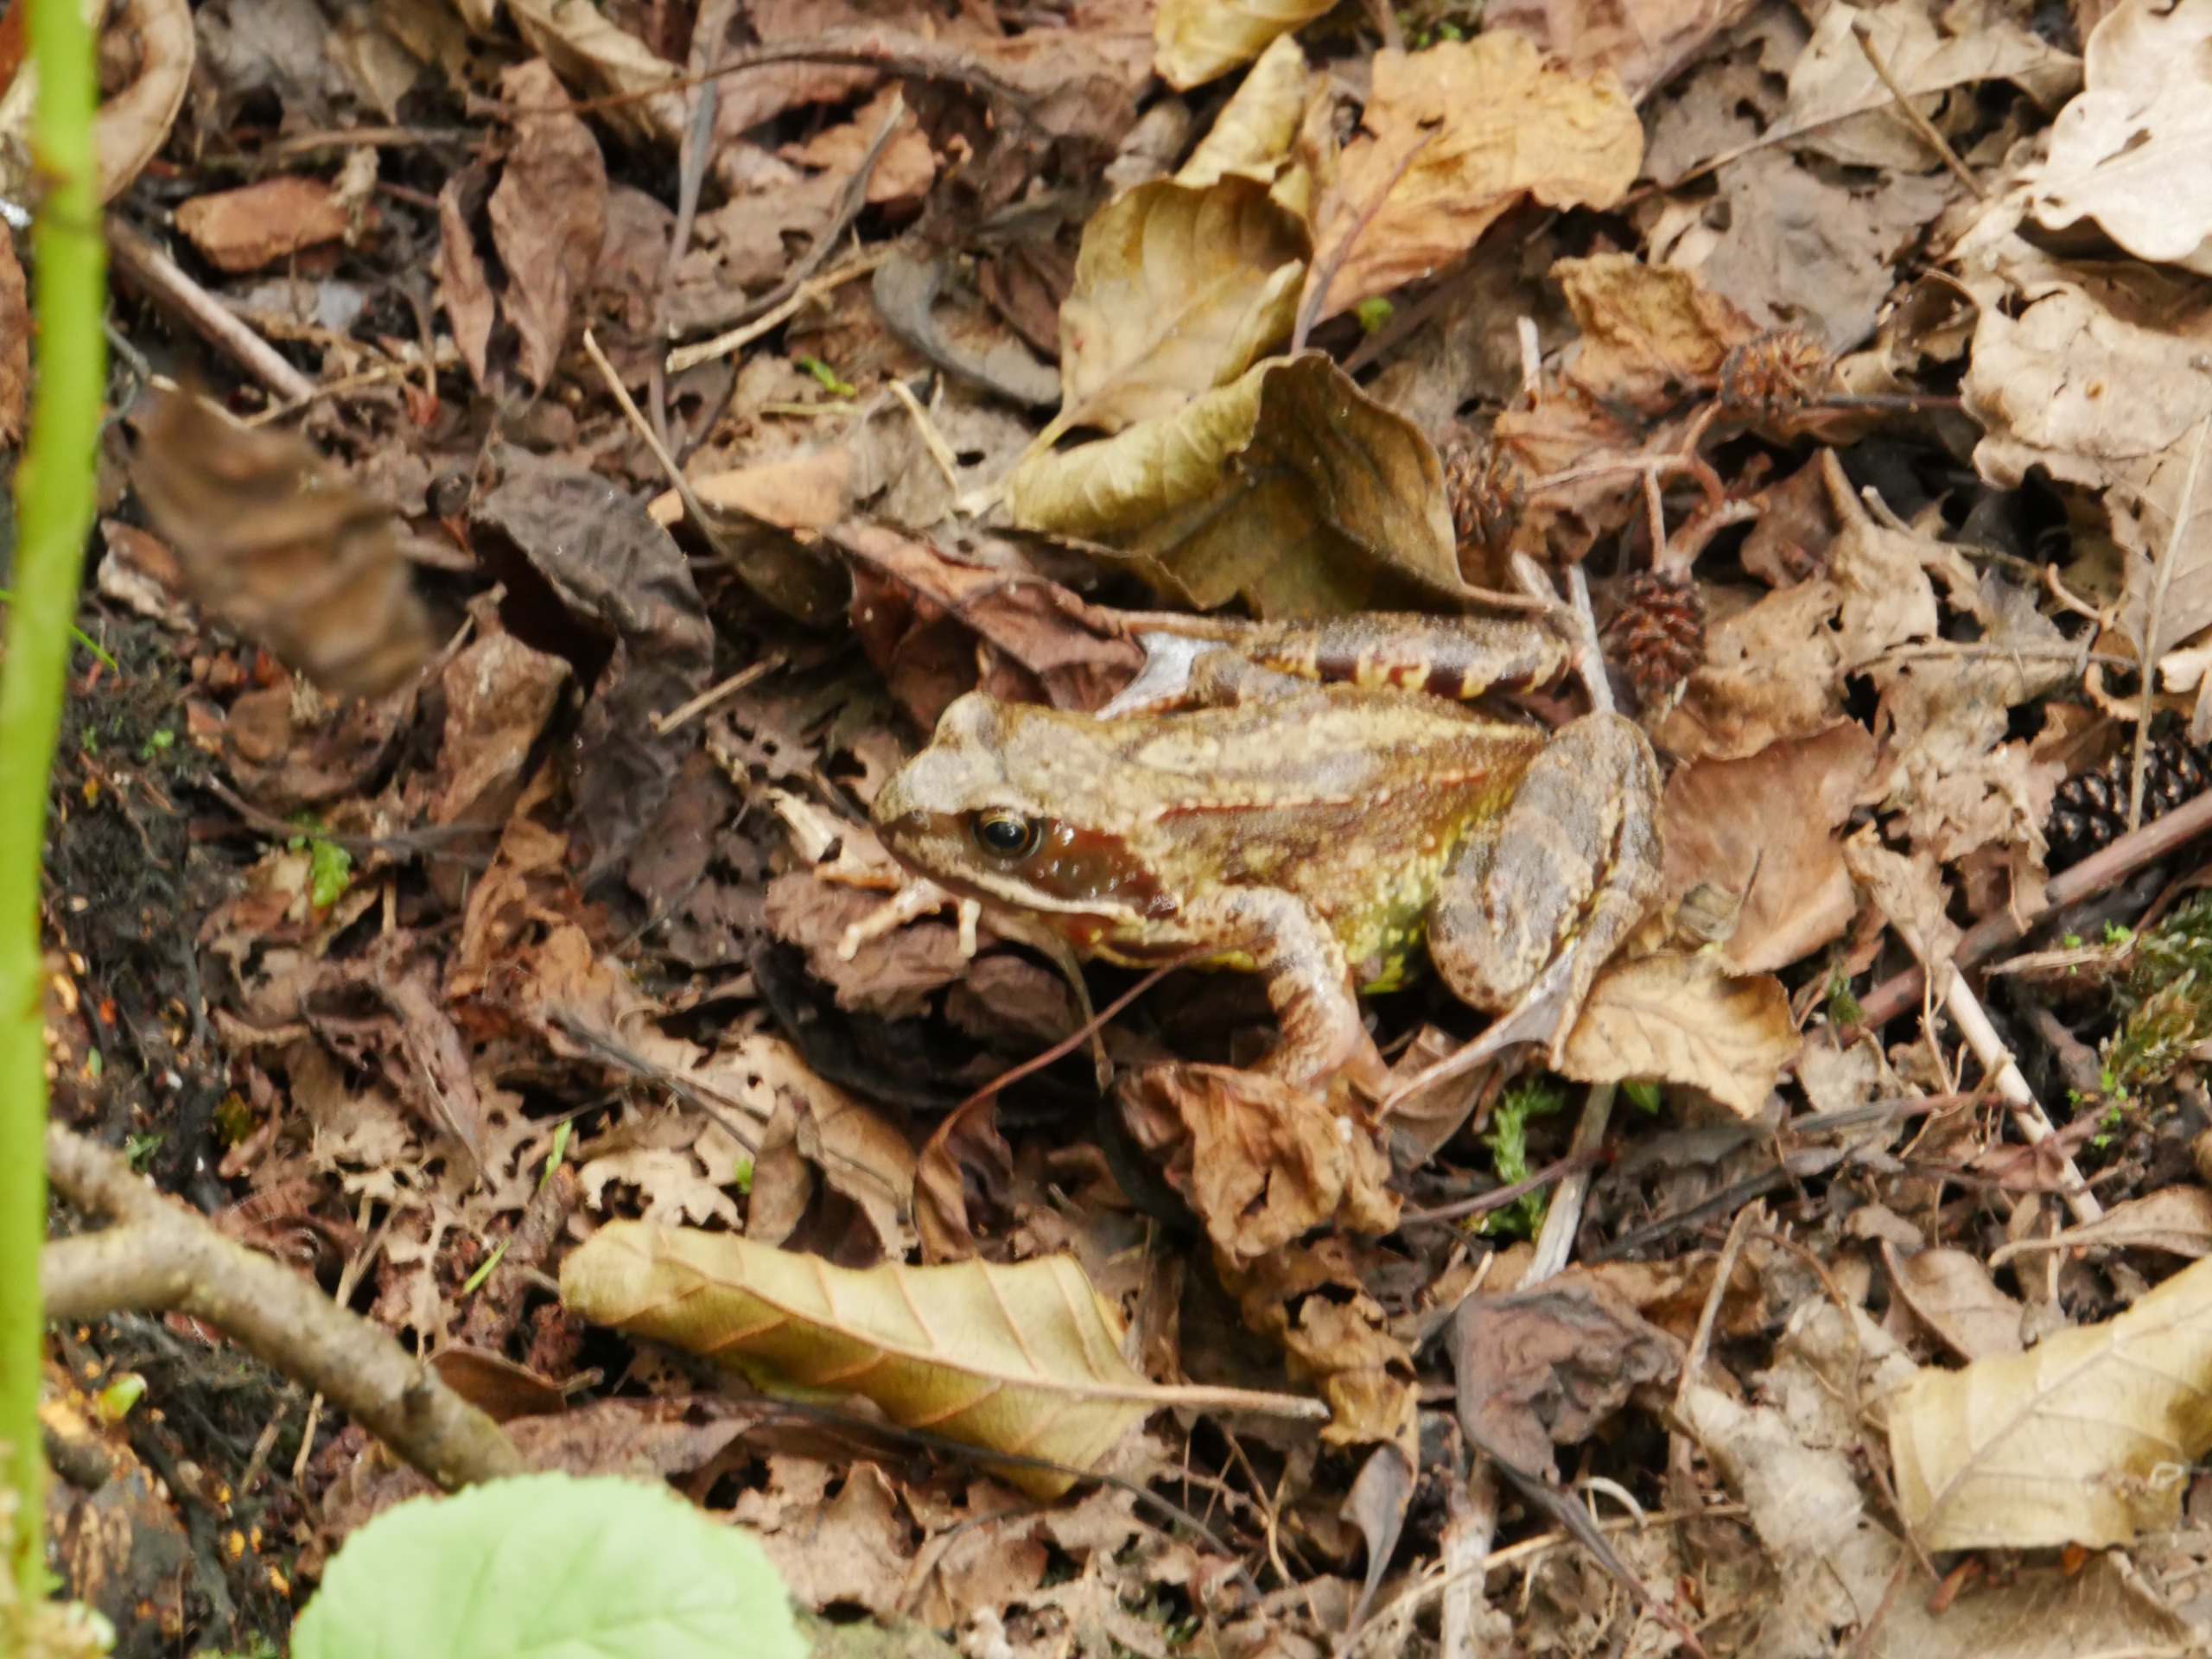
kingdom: Animalia
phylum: Chordata
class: Amphibia
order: Anura
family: Ranidae
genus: Rana
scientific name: Rana temporaria
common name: Butsnudet frø
